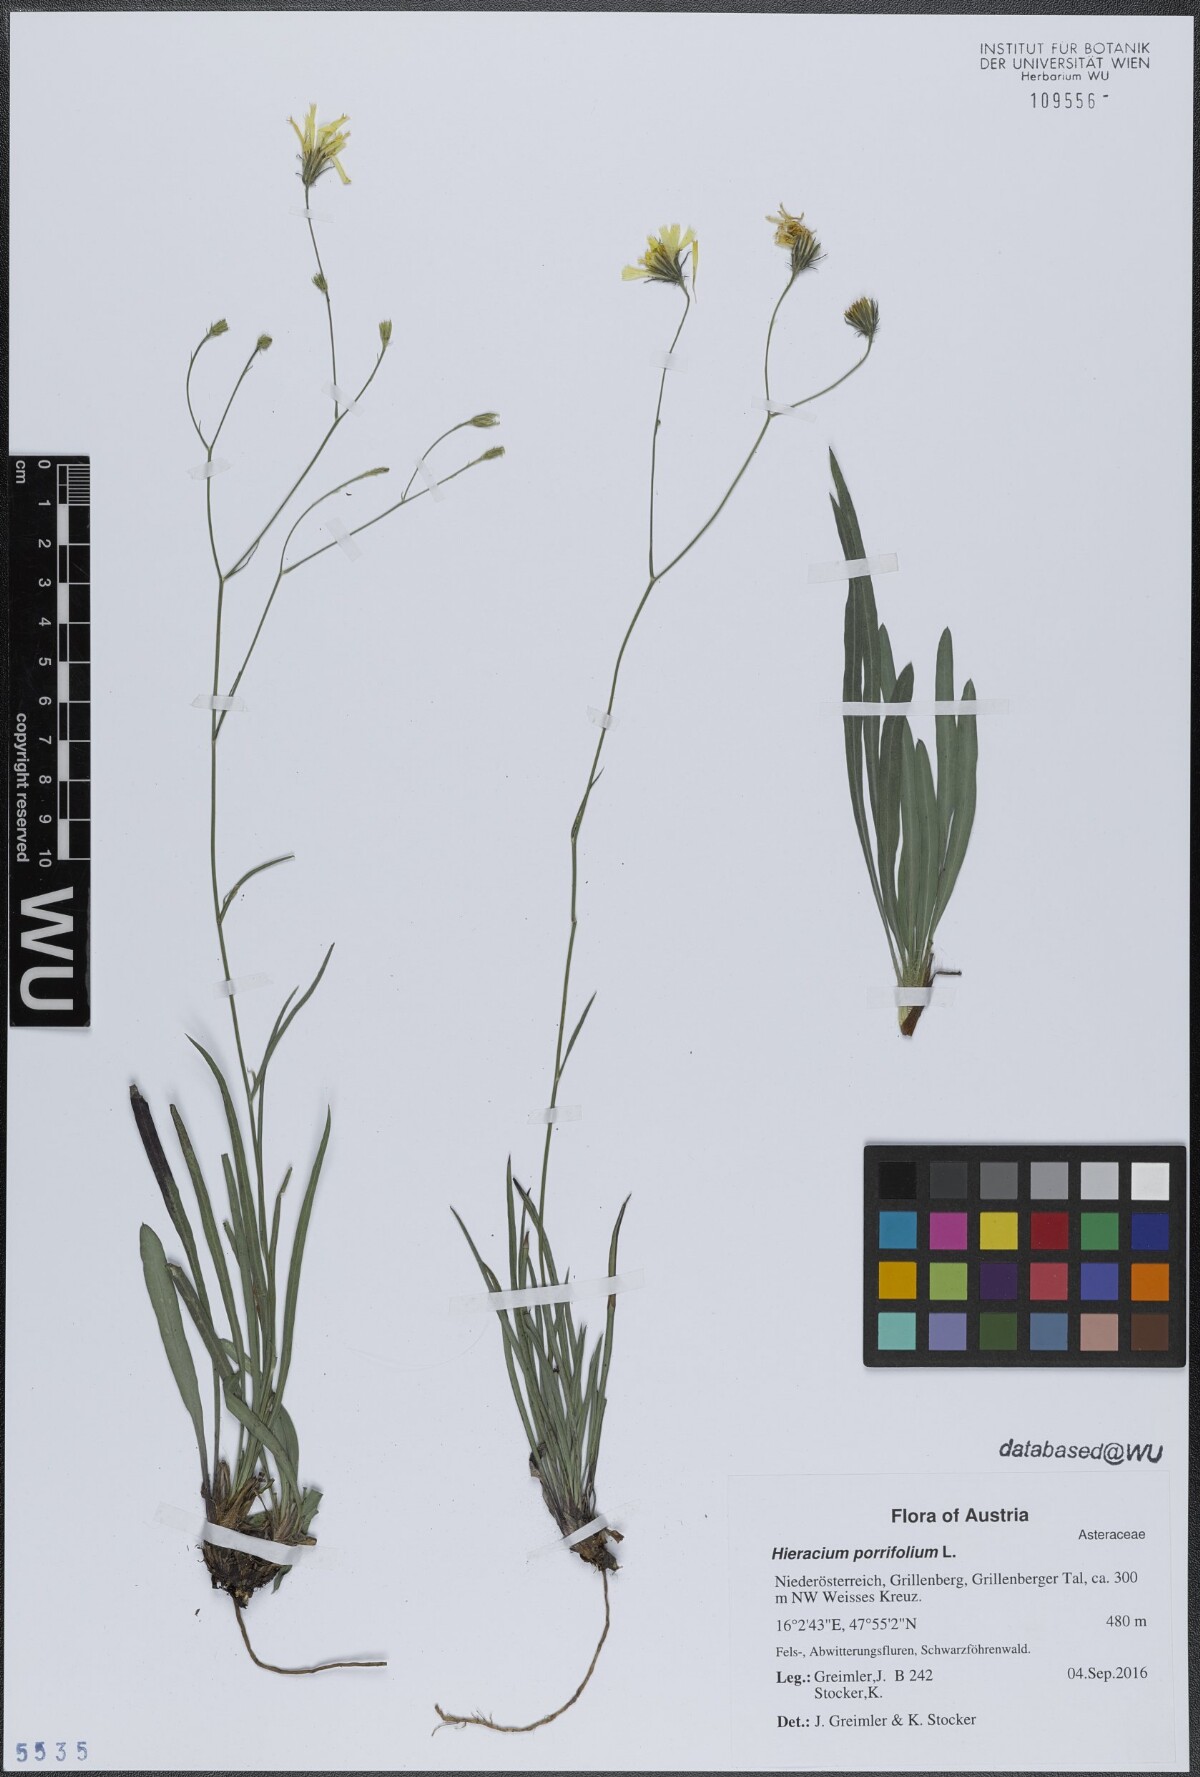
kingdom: Plantae
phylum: Tracheophyta
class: Magnoliopsida
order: Asterales
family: Asteraceae
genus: Hieracium
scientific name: Hieracium porrifolium
